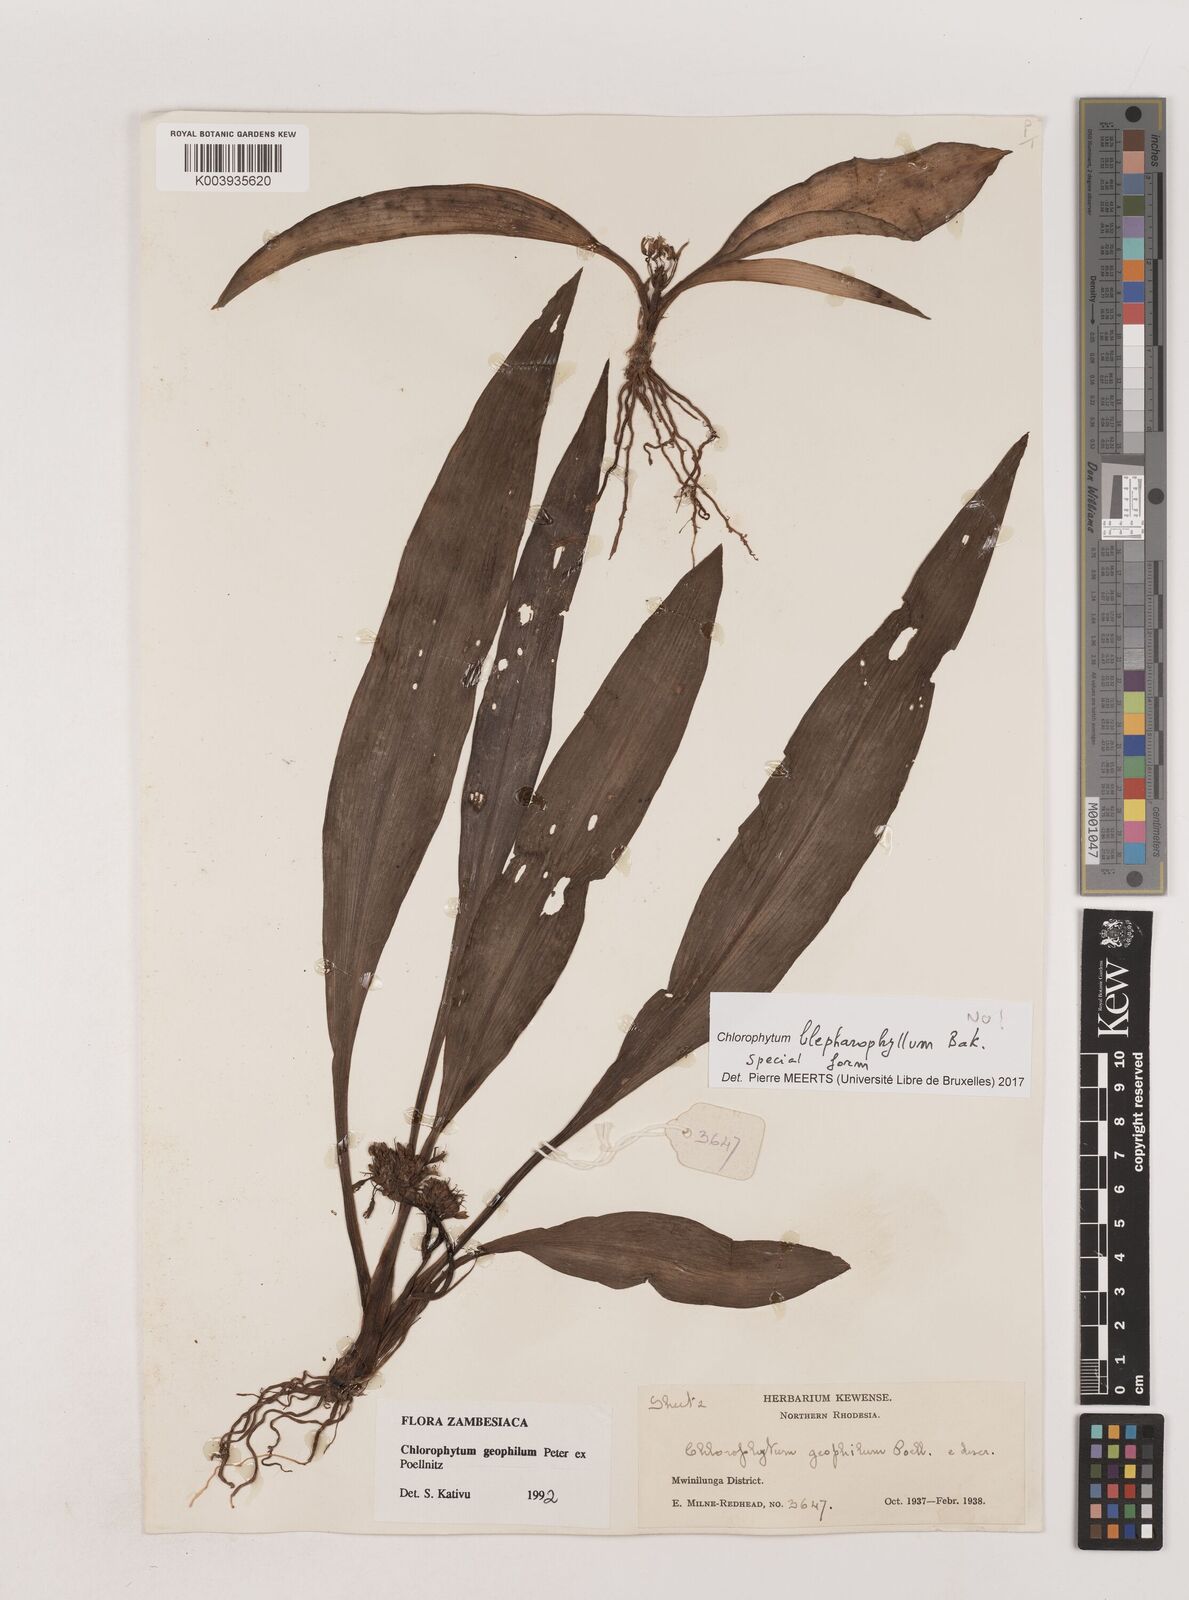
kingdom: Plantae
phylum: Tracheophyta
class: Liliopsida
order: Asparagales
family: Asparagaceae
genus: Chlorophytum
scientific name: Chlorophytum geophilum
